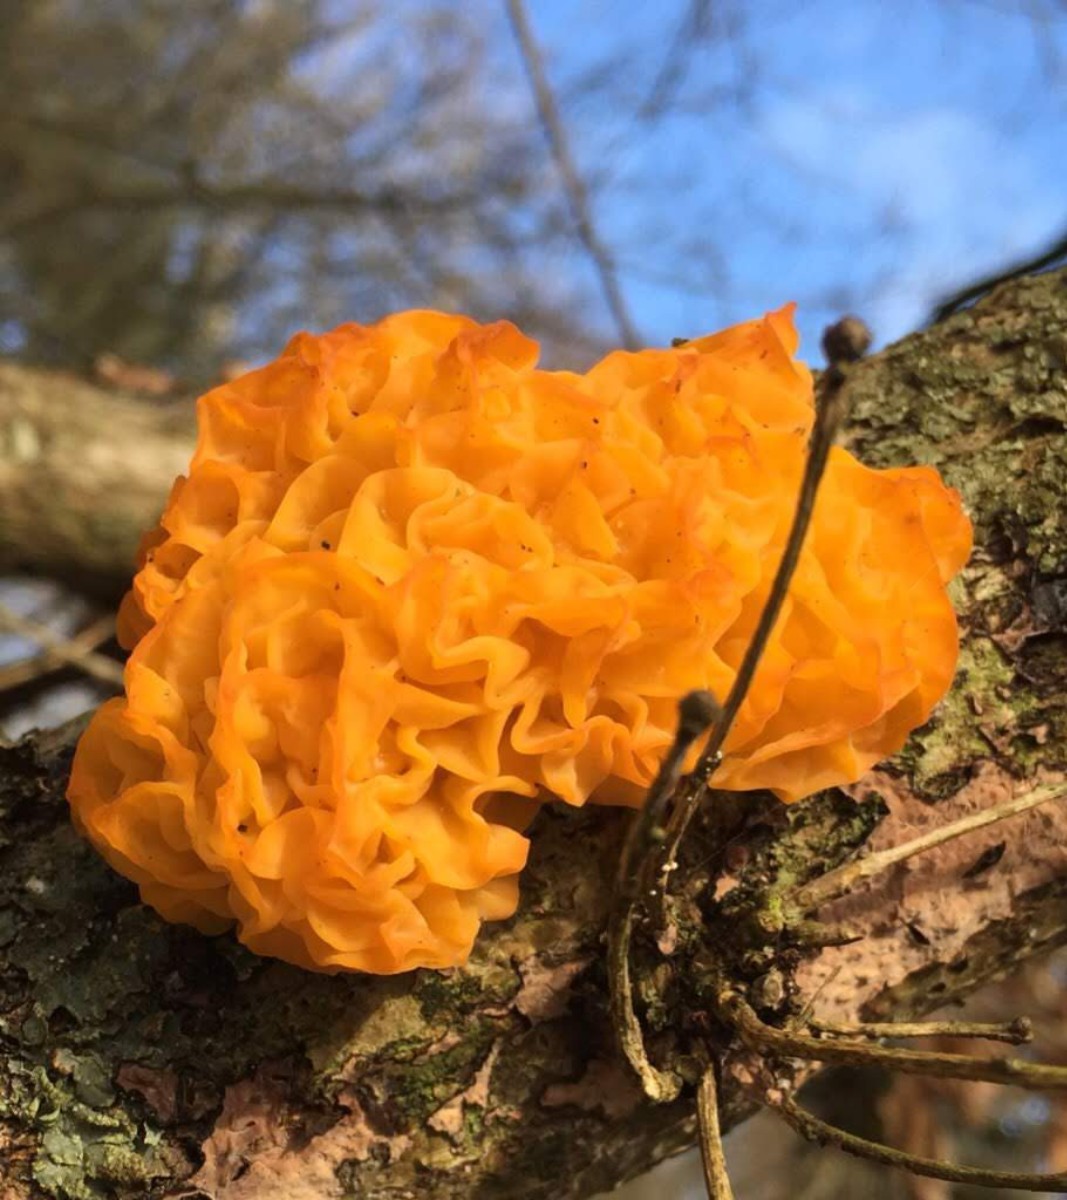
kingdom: Fungi
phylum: Basidiomycota
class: Tremellomycetes
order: Tremellales
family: Tremellaceae
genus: Tremella
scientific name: Tremella mesenterica
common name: gul bævresvamp
